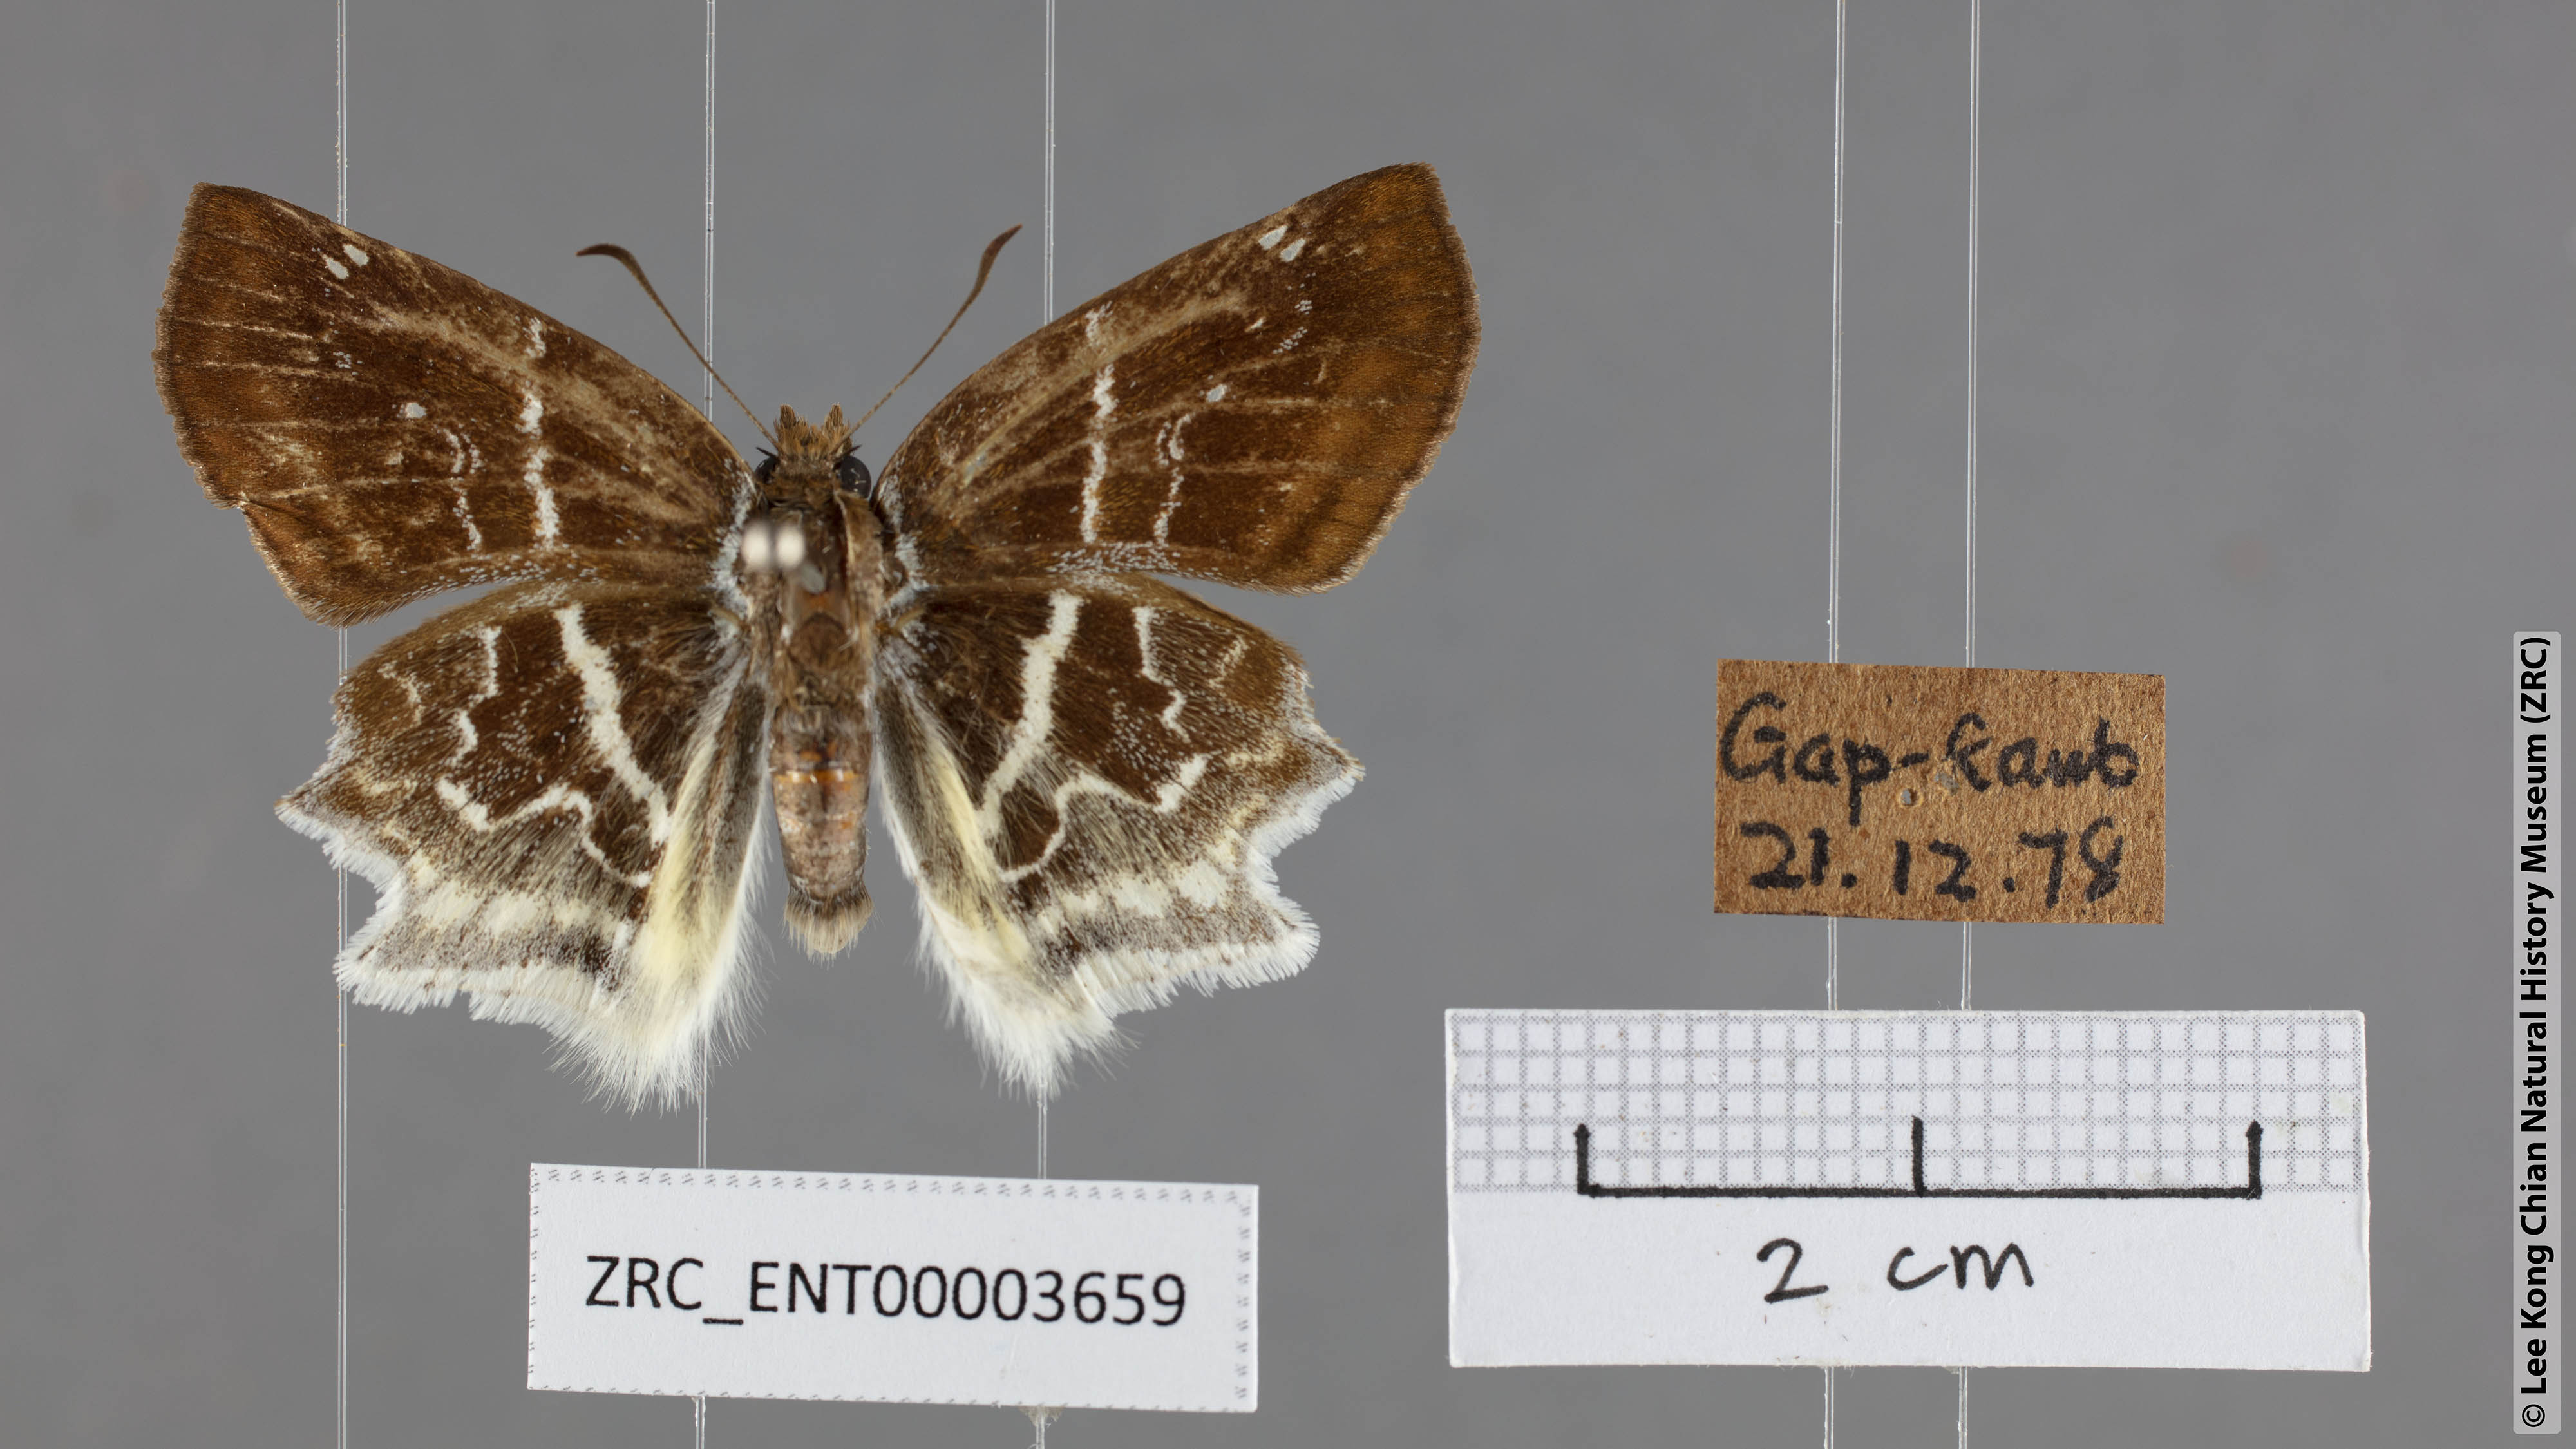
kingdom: Animalia
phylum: Arthropoda
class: Insecta
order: Lepidoptera
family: Hesperiidae
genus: Odontoptilum
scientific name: Odontoptilum pygela
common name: Banded angle
